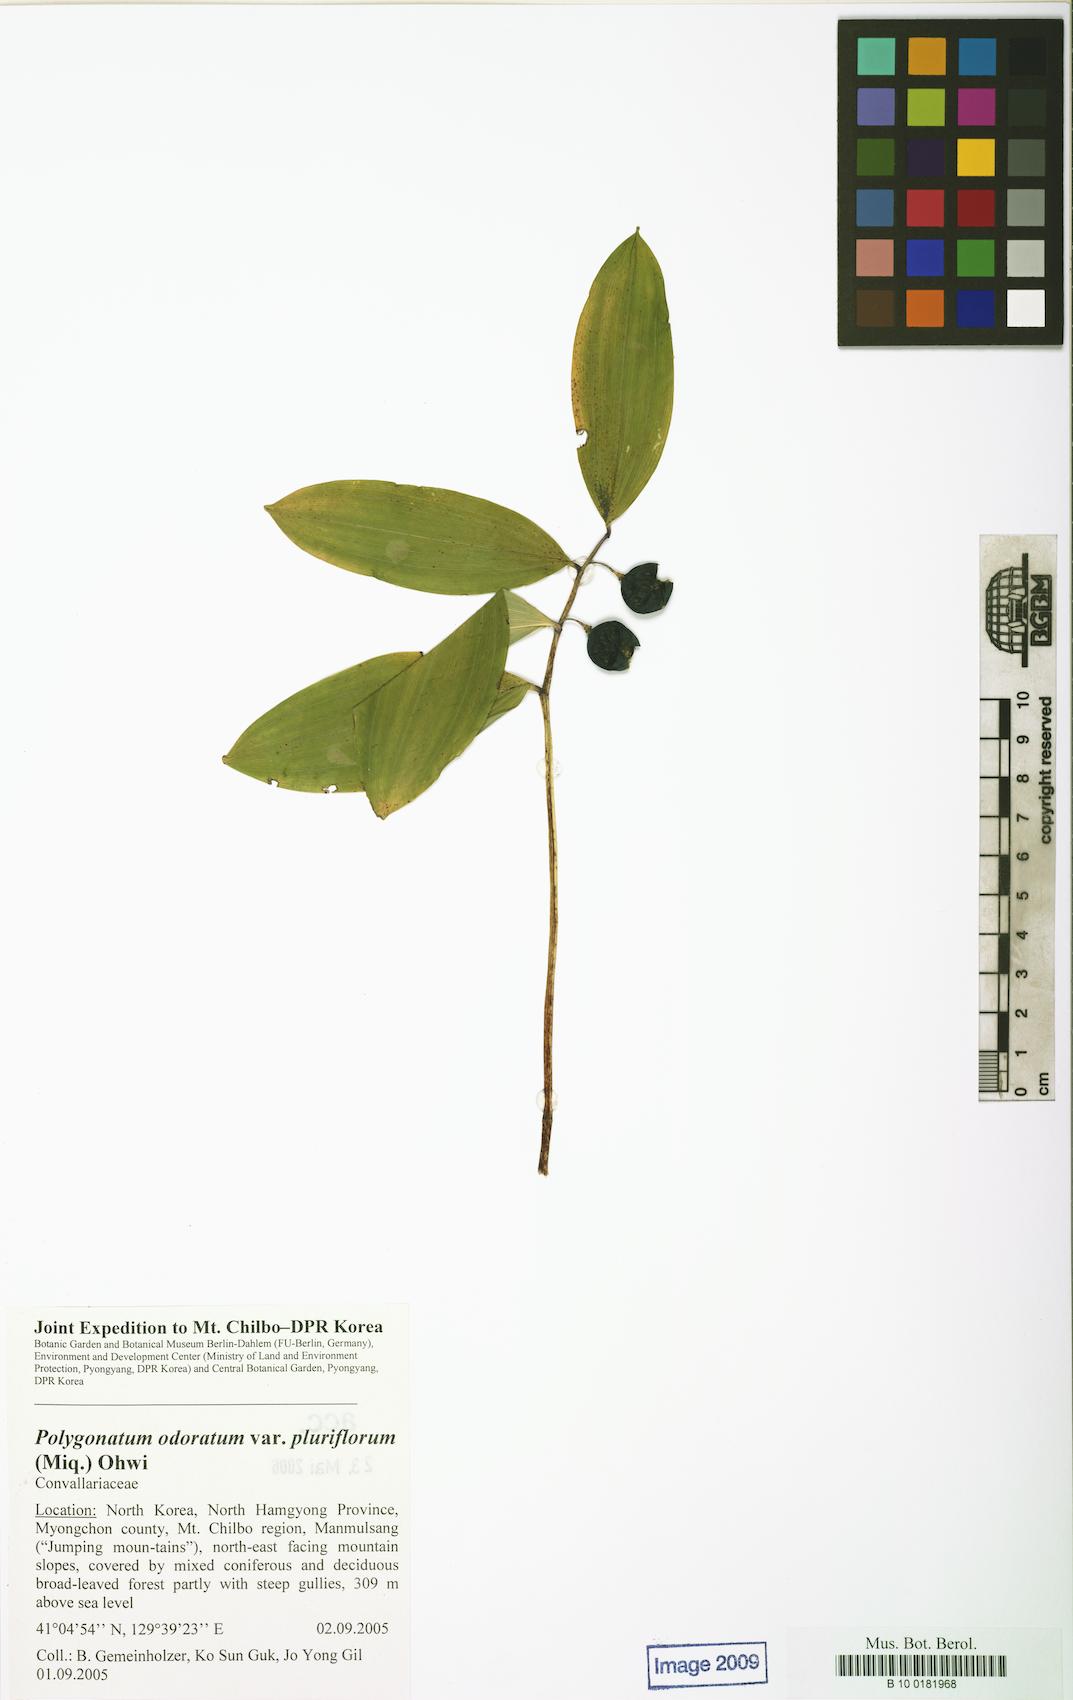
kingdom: Plantae
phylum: Tracheophyta
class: Liliopsida
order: Asparagales
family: Asparagaceae
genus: Polygonatum
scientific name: Polygonatum odoratum
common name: Angular solomon's-seal
